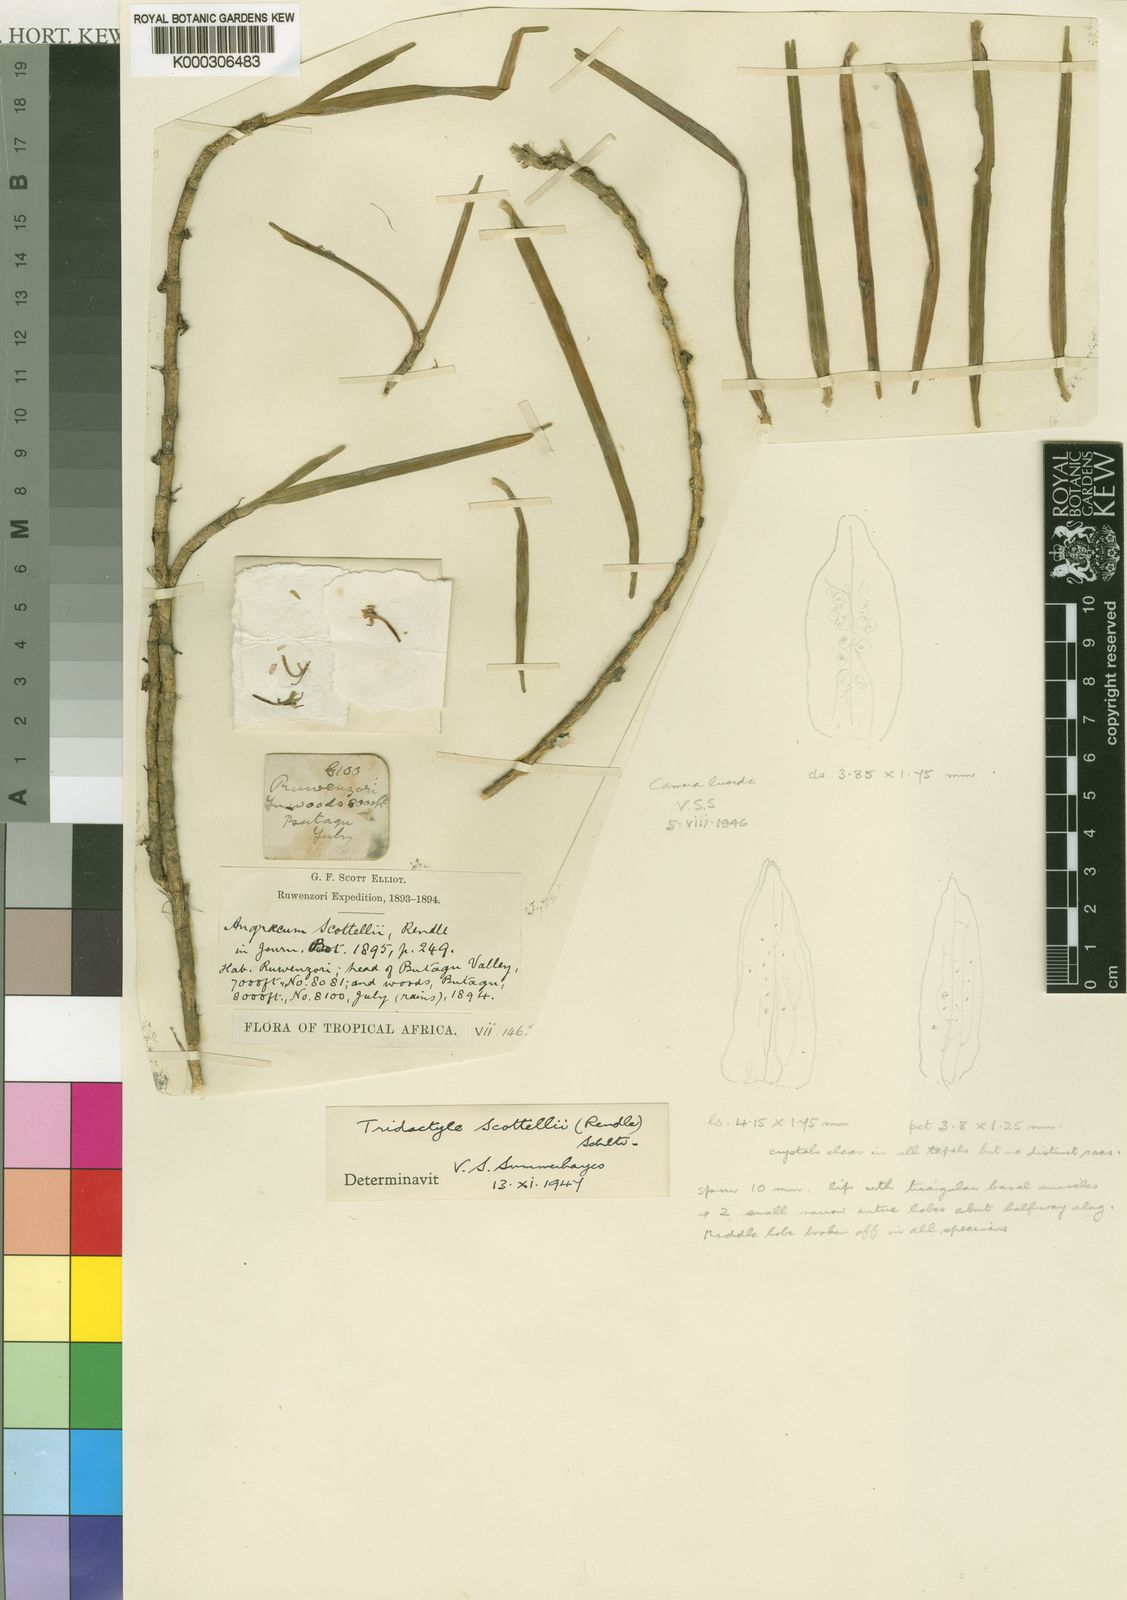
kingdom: Plantae
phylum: Tracheophyta
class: Liliopsida
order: Asparagales
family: Orchidaceae
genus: Tridactyle
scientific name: Tridactyle scottellii
